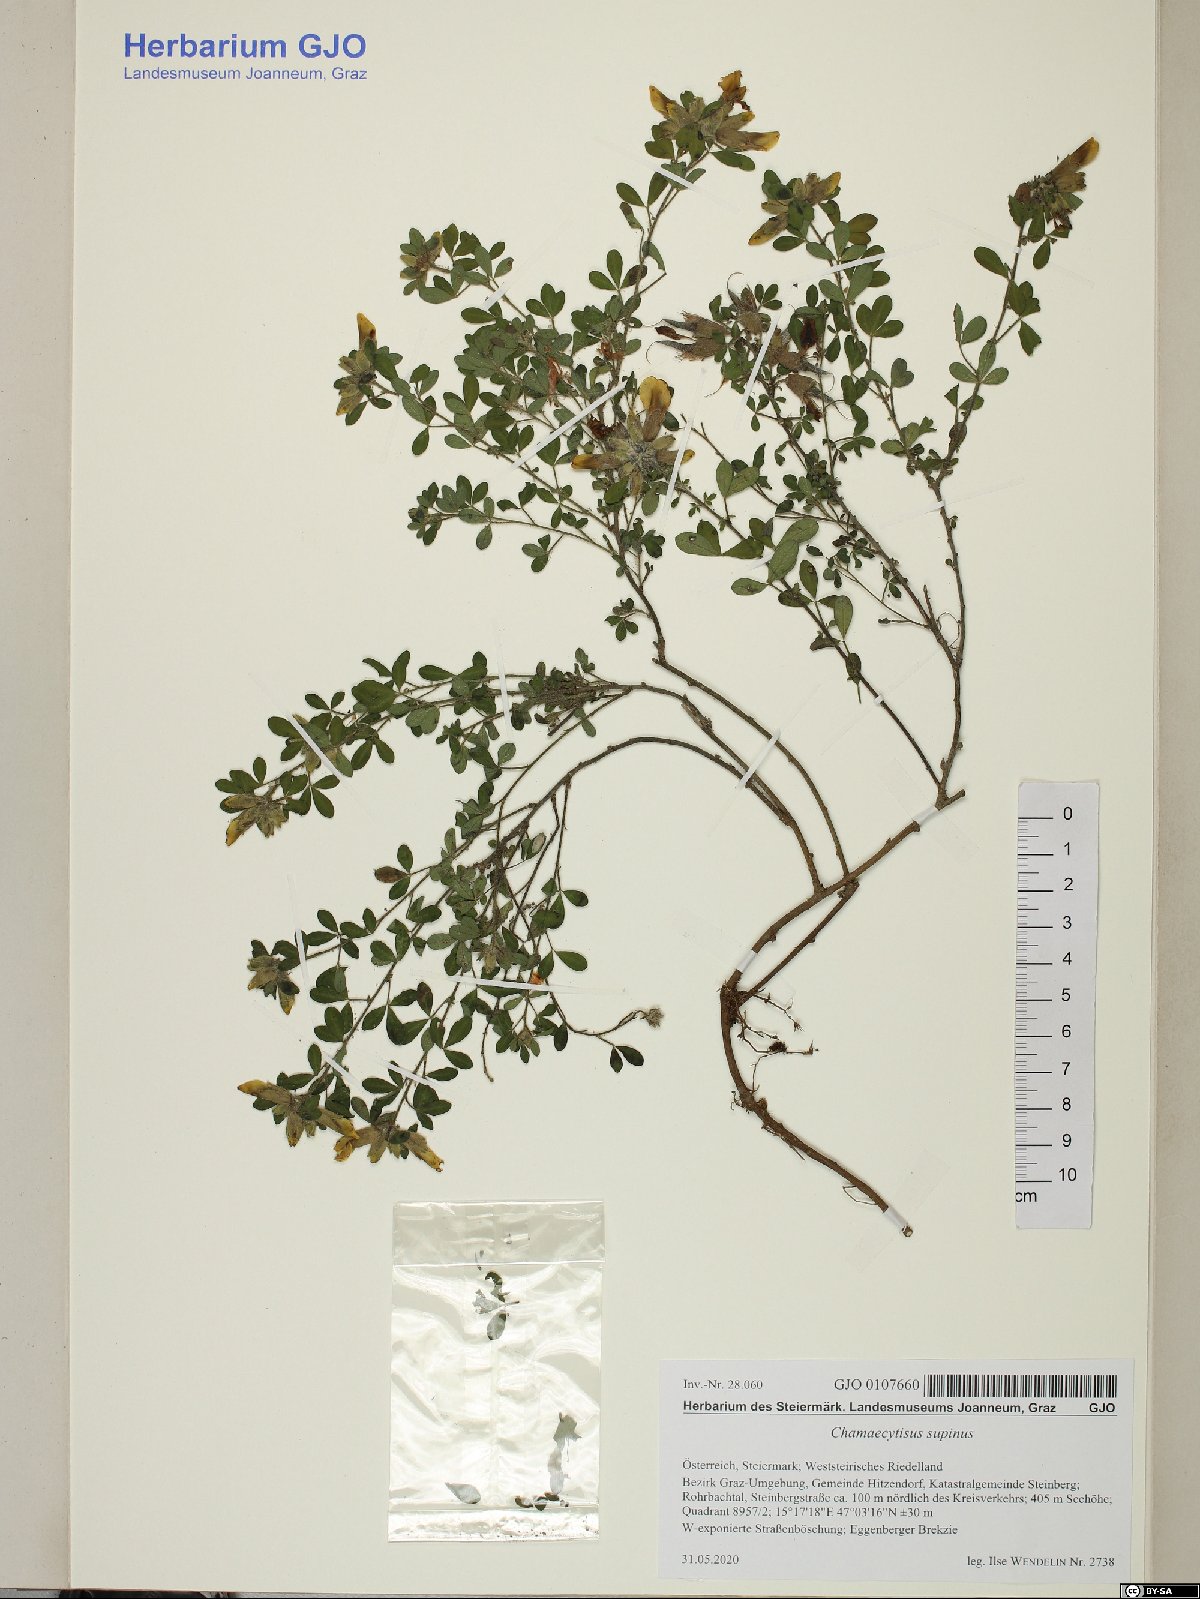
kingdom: Plantae
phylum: Tracheophyta
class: Magnoliopsida
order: Fabales
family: Fabaceae
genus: Chamaecytisus
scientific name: Chamaecytisus supinus
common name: Clustered broom
